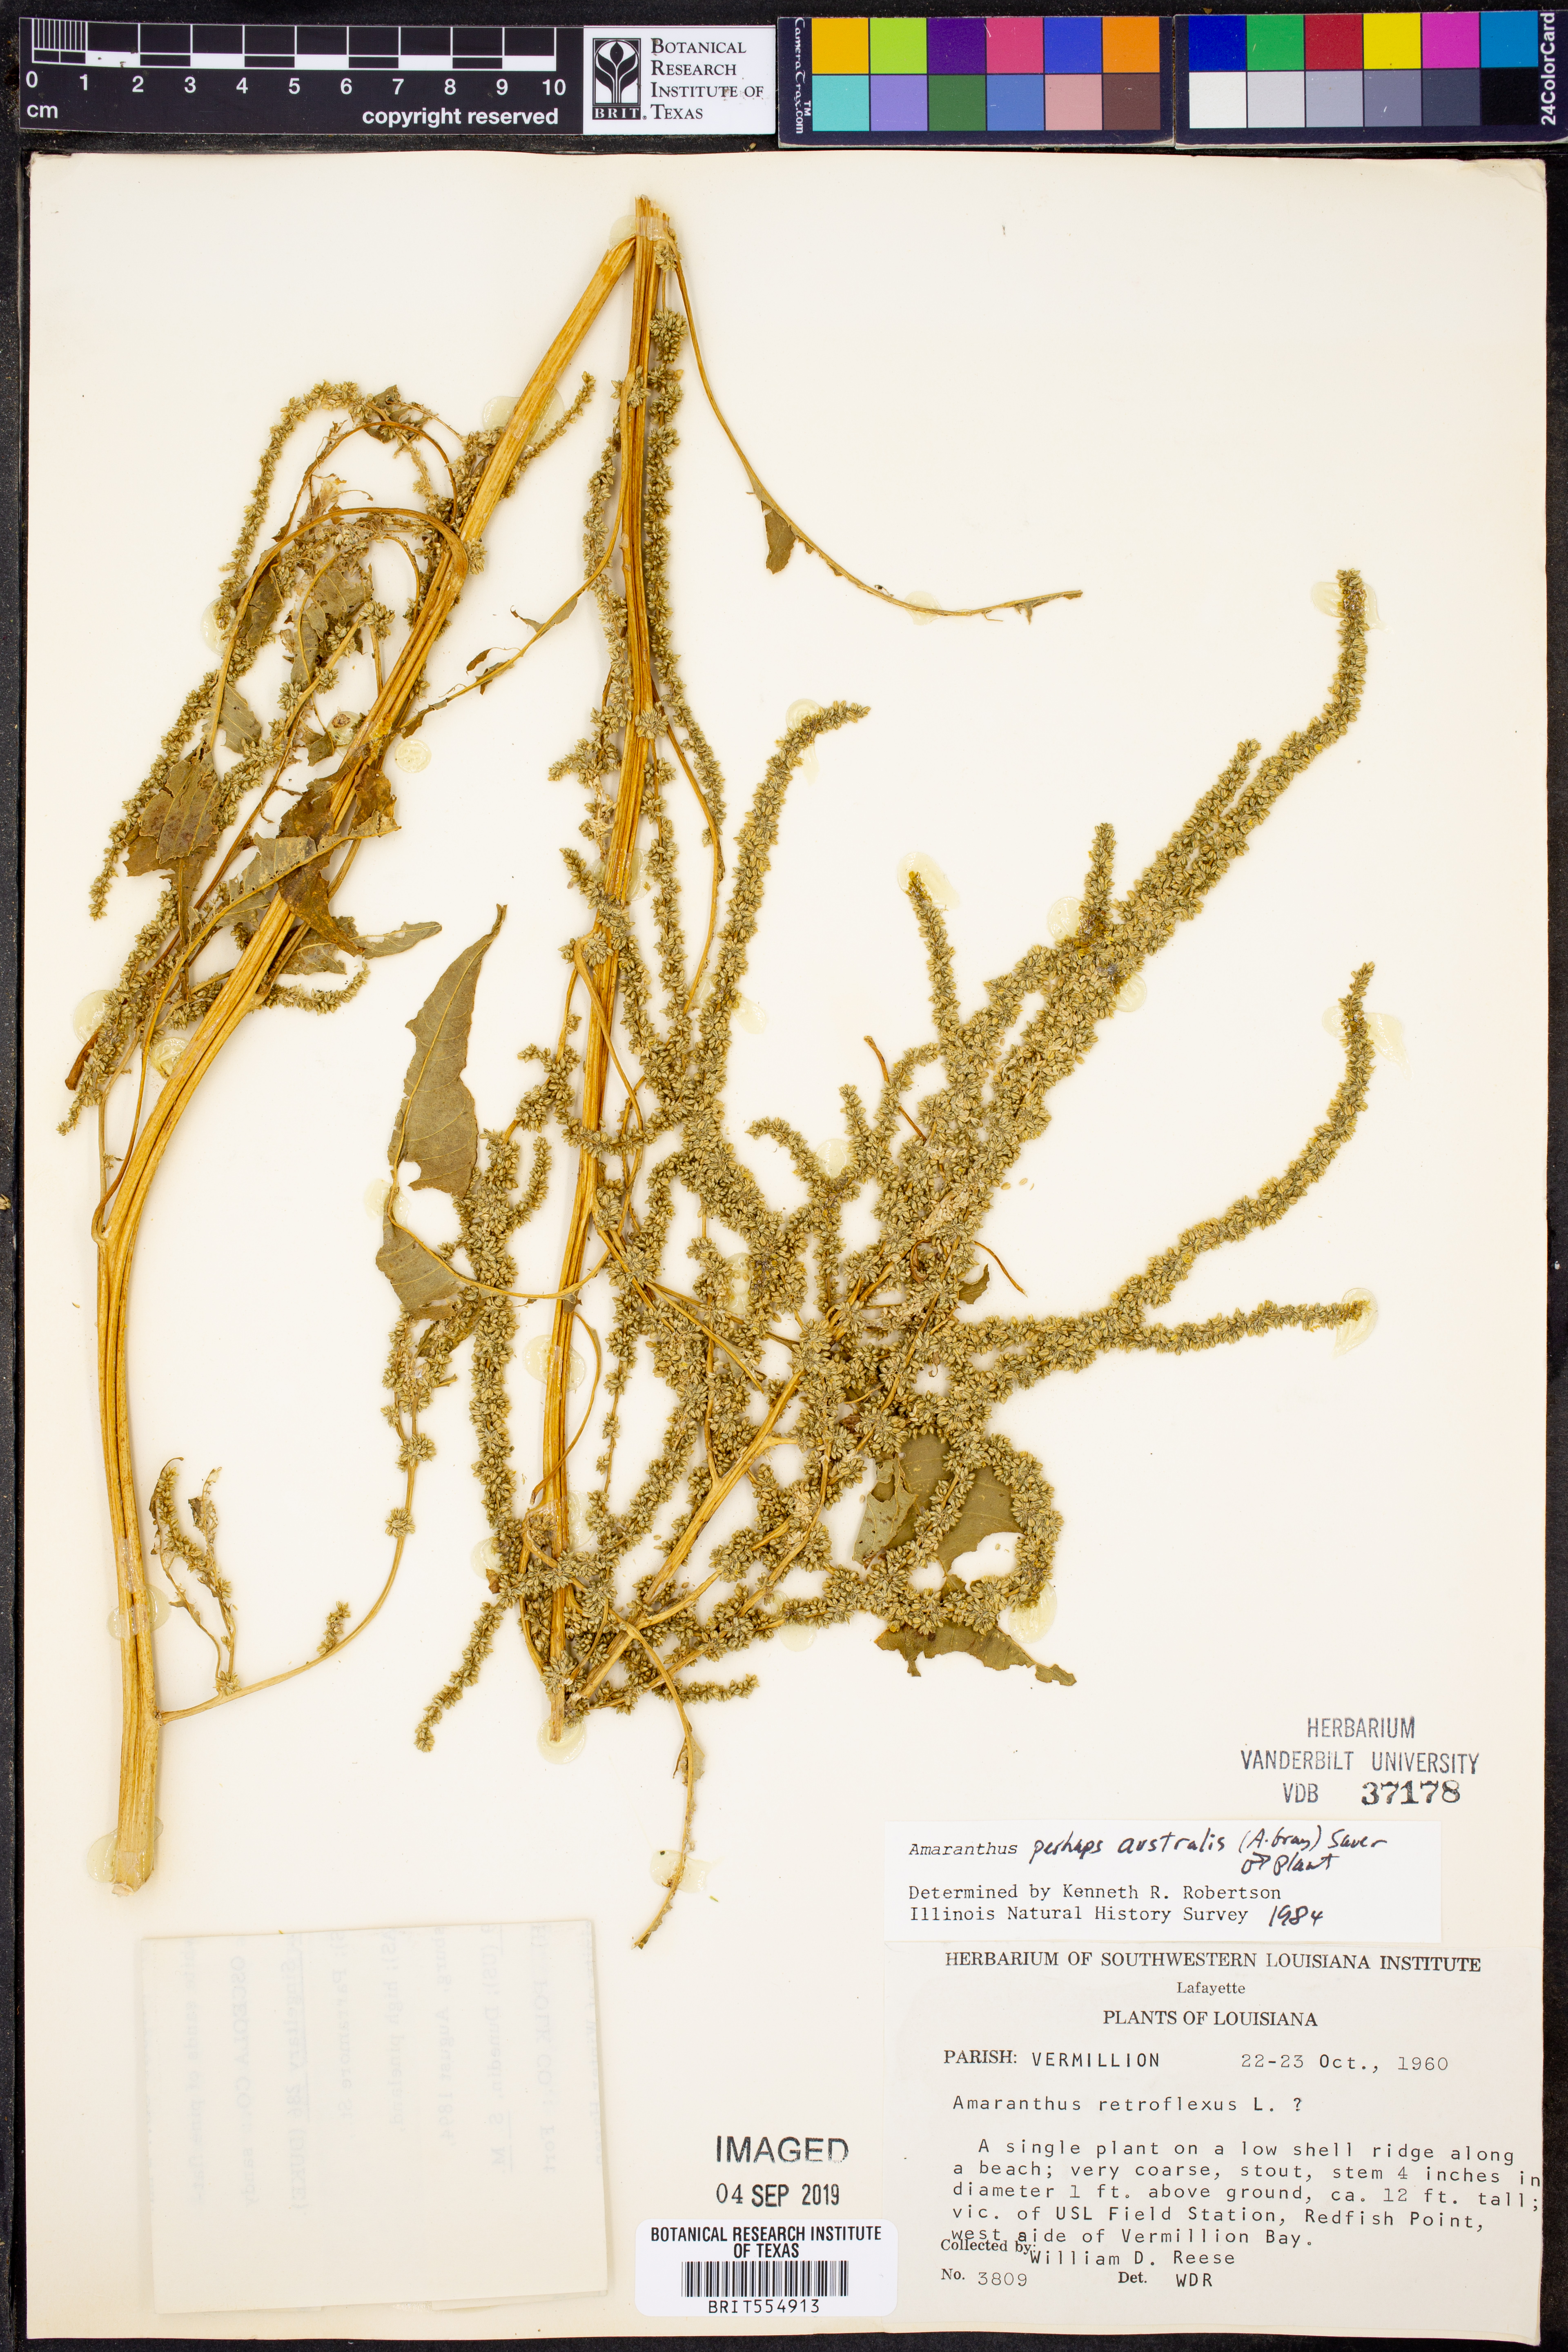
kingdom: Plantae
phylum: Tracheophyta
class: Magnoliopsida
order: Caryophyllales
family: Amaranthaceae
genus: Amaranthus
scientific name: Amaranthus
